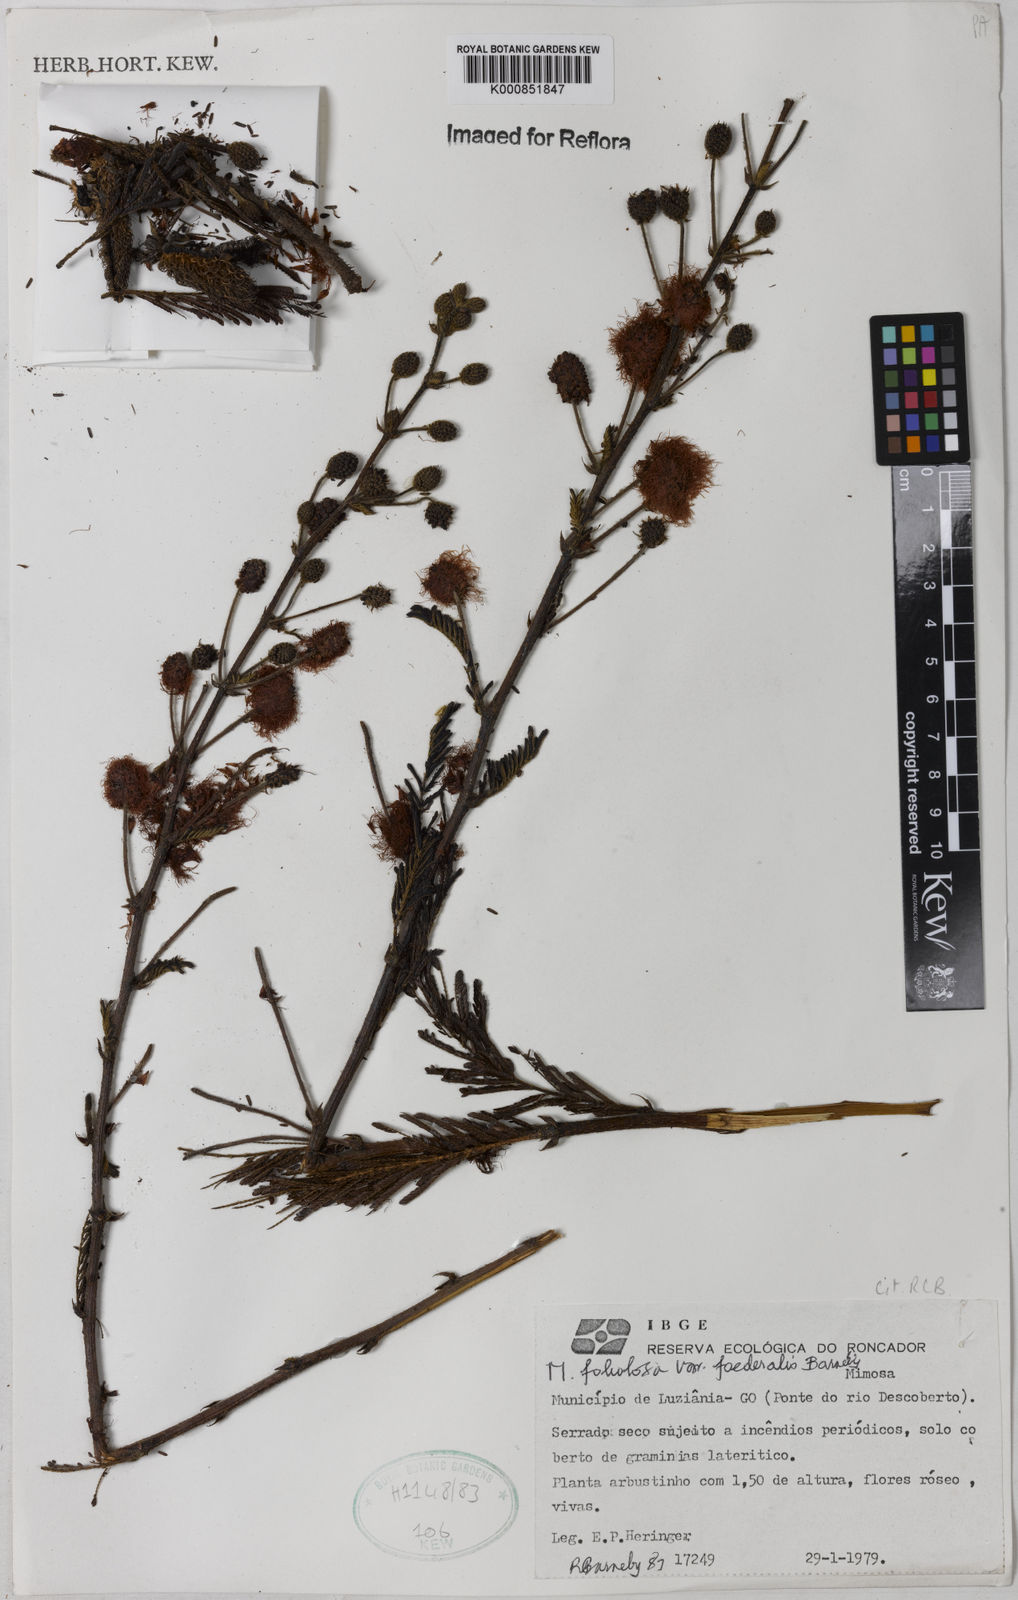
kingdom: Plantae
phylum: Tracheophyta
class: Magnoliopsida
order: Fabales
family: Fabaceae
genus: Mimosa
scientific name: Mimosa foliolosa
